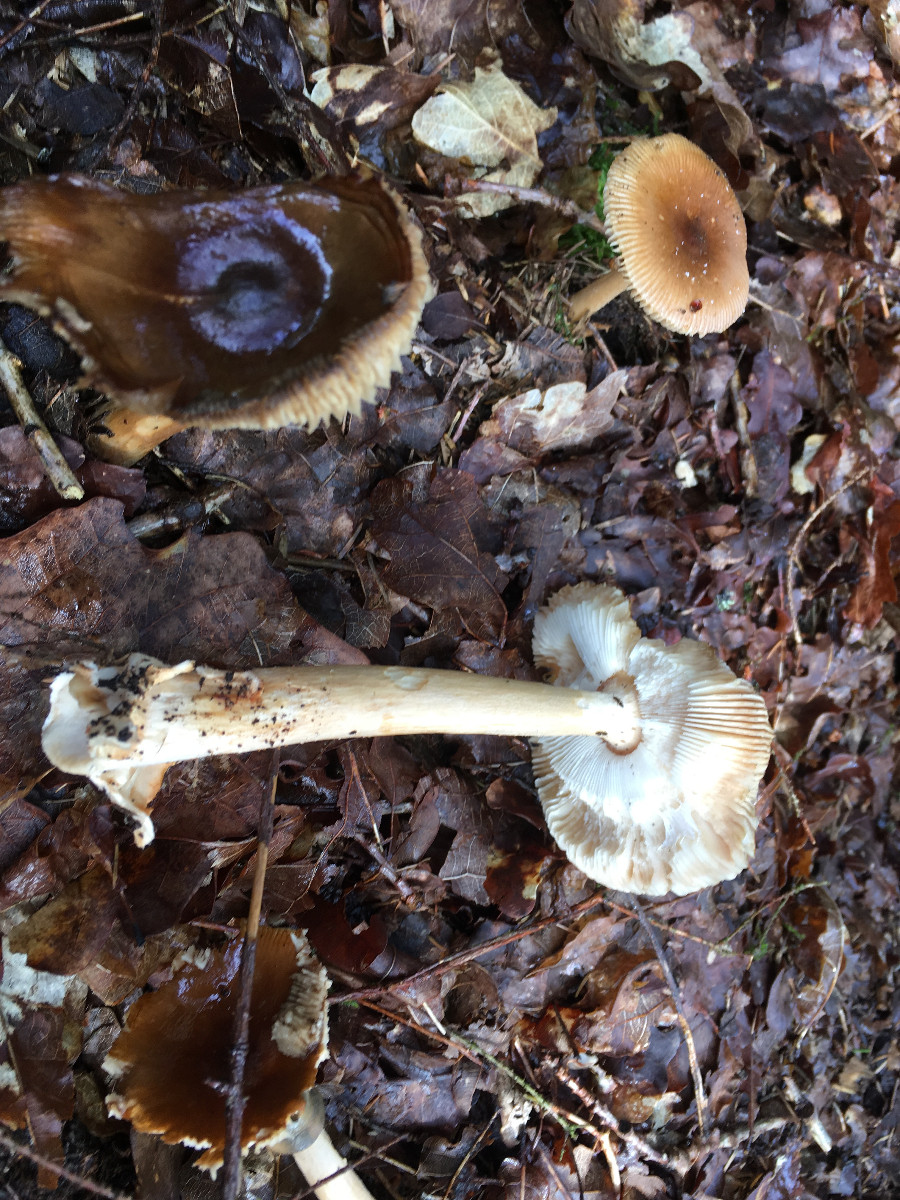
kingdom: Fungi
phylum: Basidiomycota
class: Agaricomycetes
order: Agaricales
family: Amanitaceae
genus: Amanita
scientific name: Amanita fulva
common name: brun kam-fluesvamp
